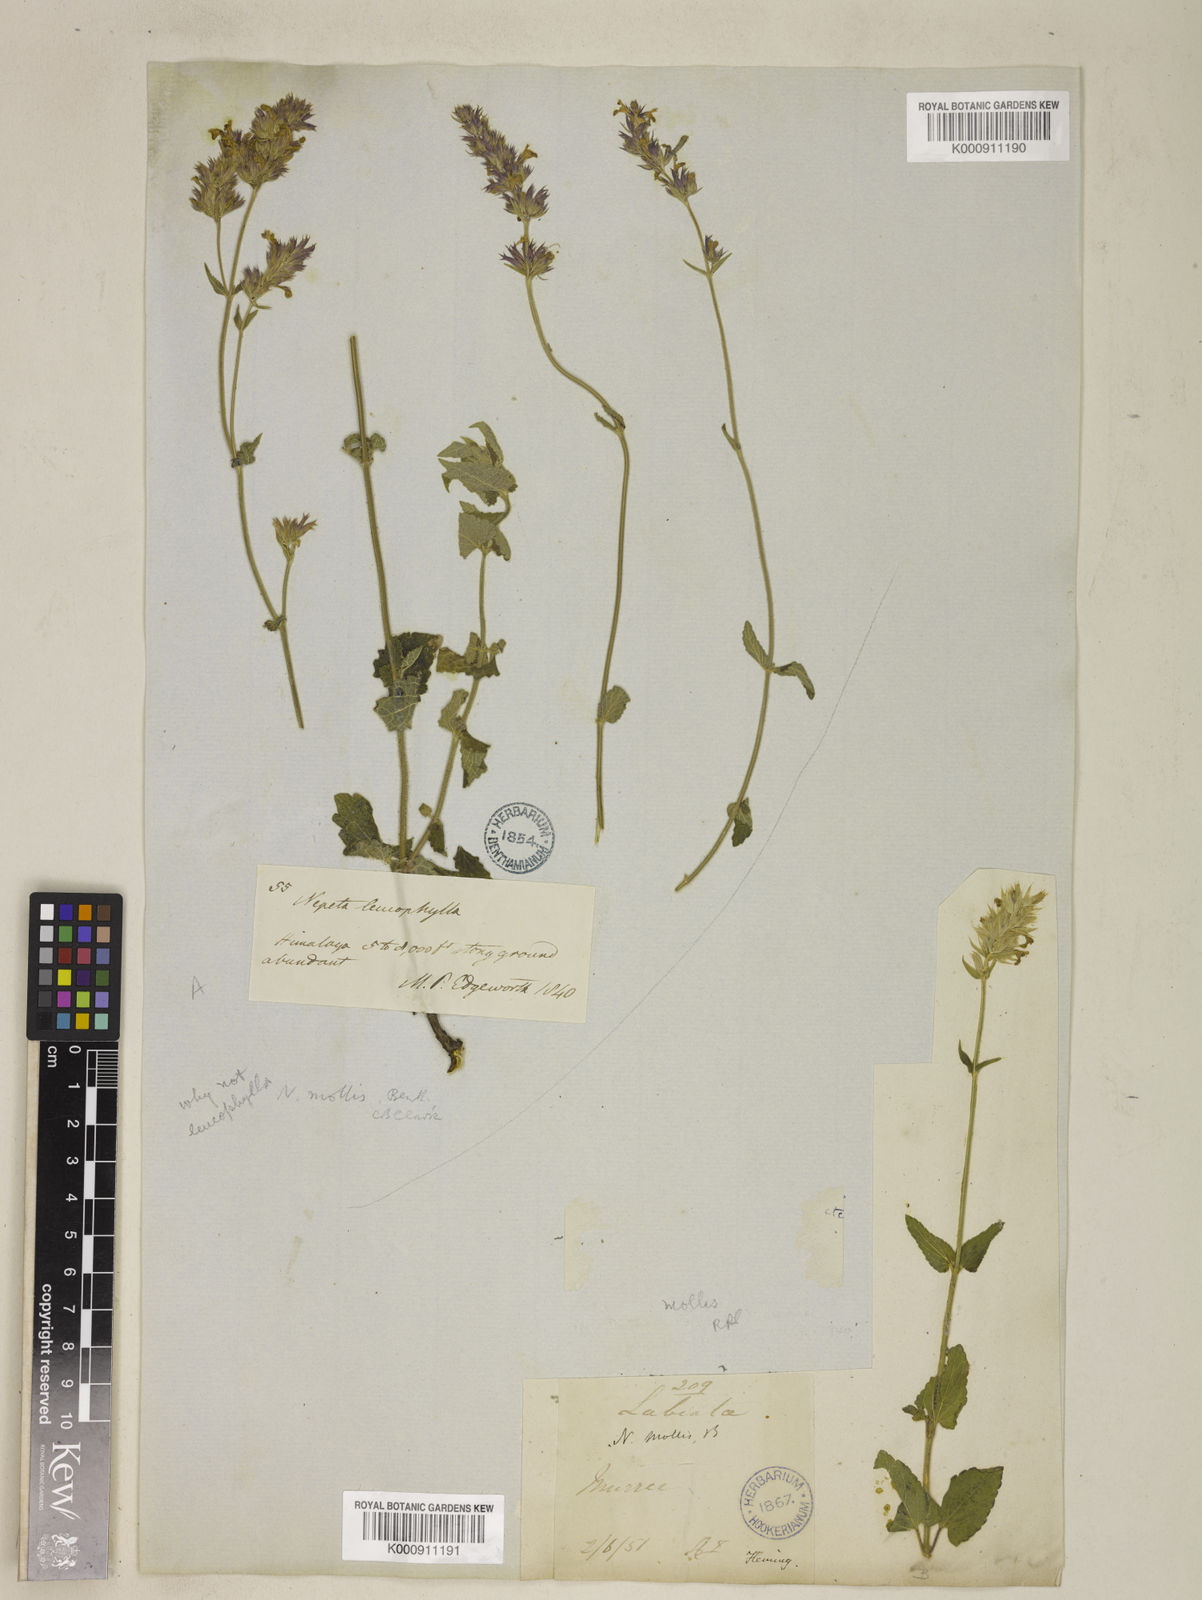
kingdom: Plantae
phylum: Tracheophyta
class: Magnoliopsida
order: Lamiales
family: Lamiaceae
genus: Nepeta
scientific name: Nepeta distans
